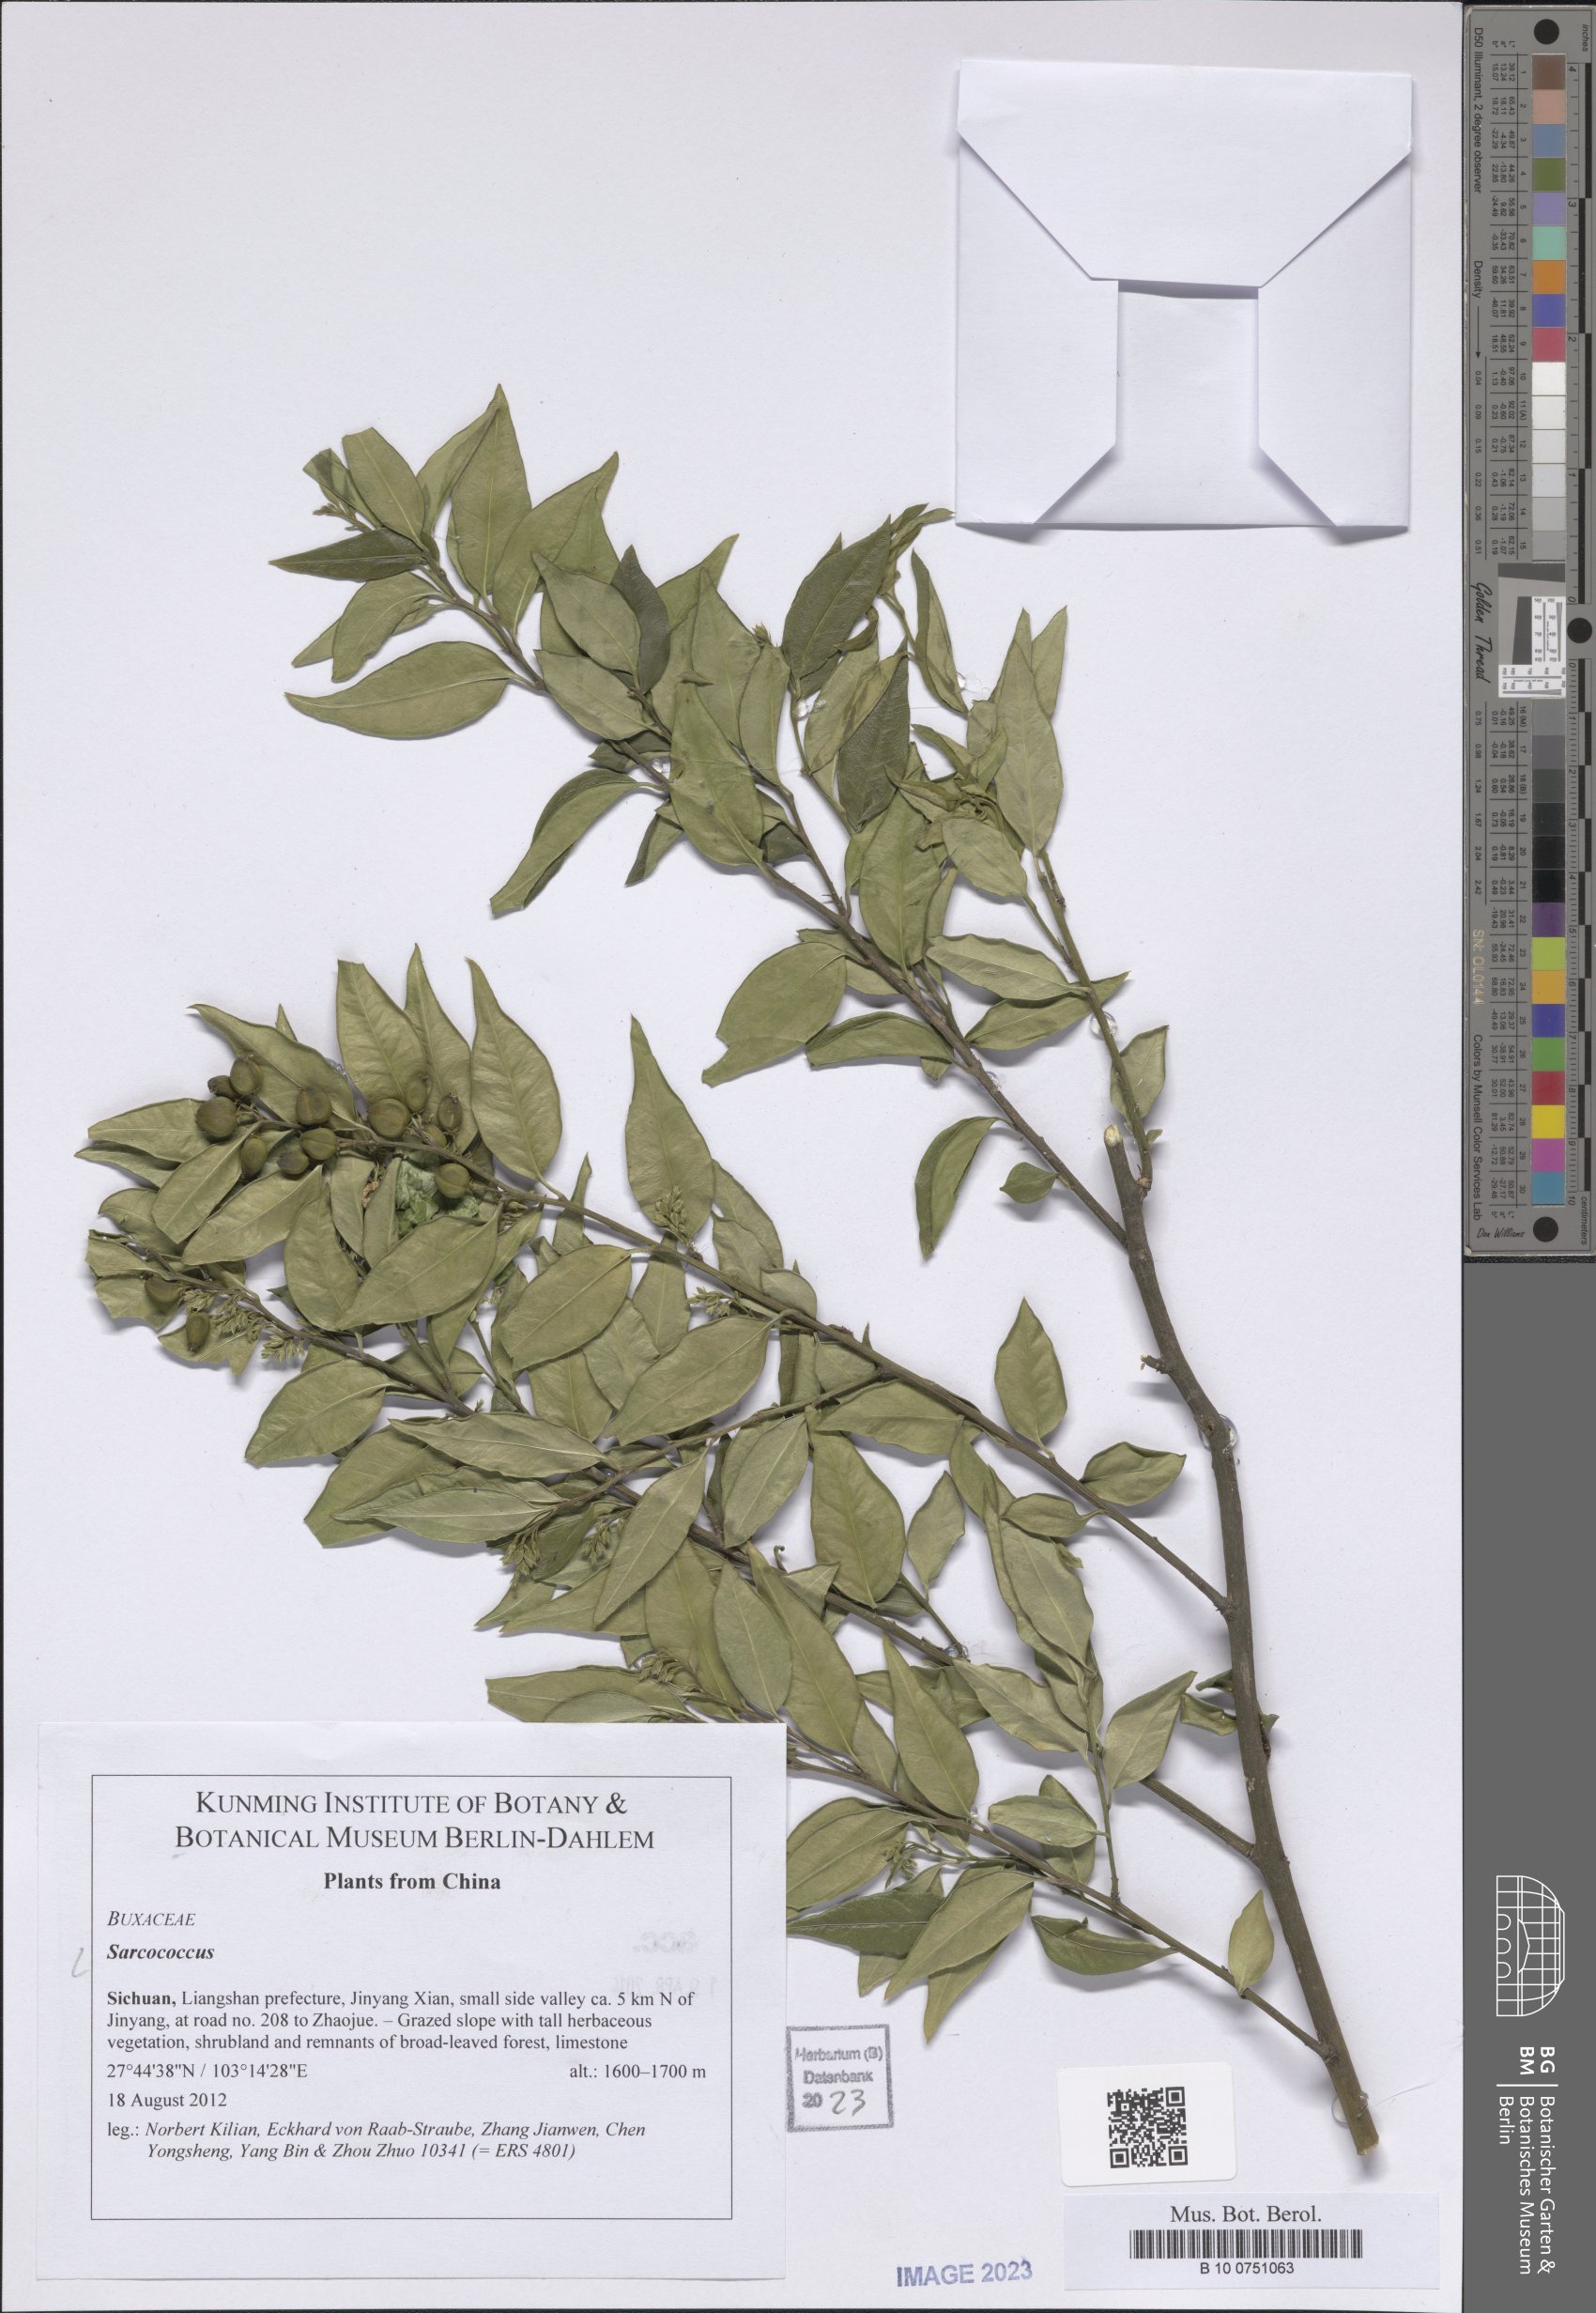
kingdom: Plantae
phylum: Tracheophyta
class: Magnoliopsida
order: Buxales
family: Buxaceae
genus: Sarcococca
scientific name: Sarcococca
